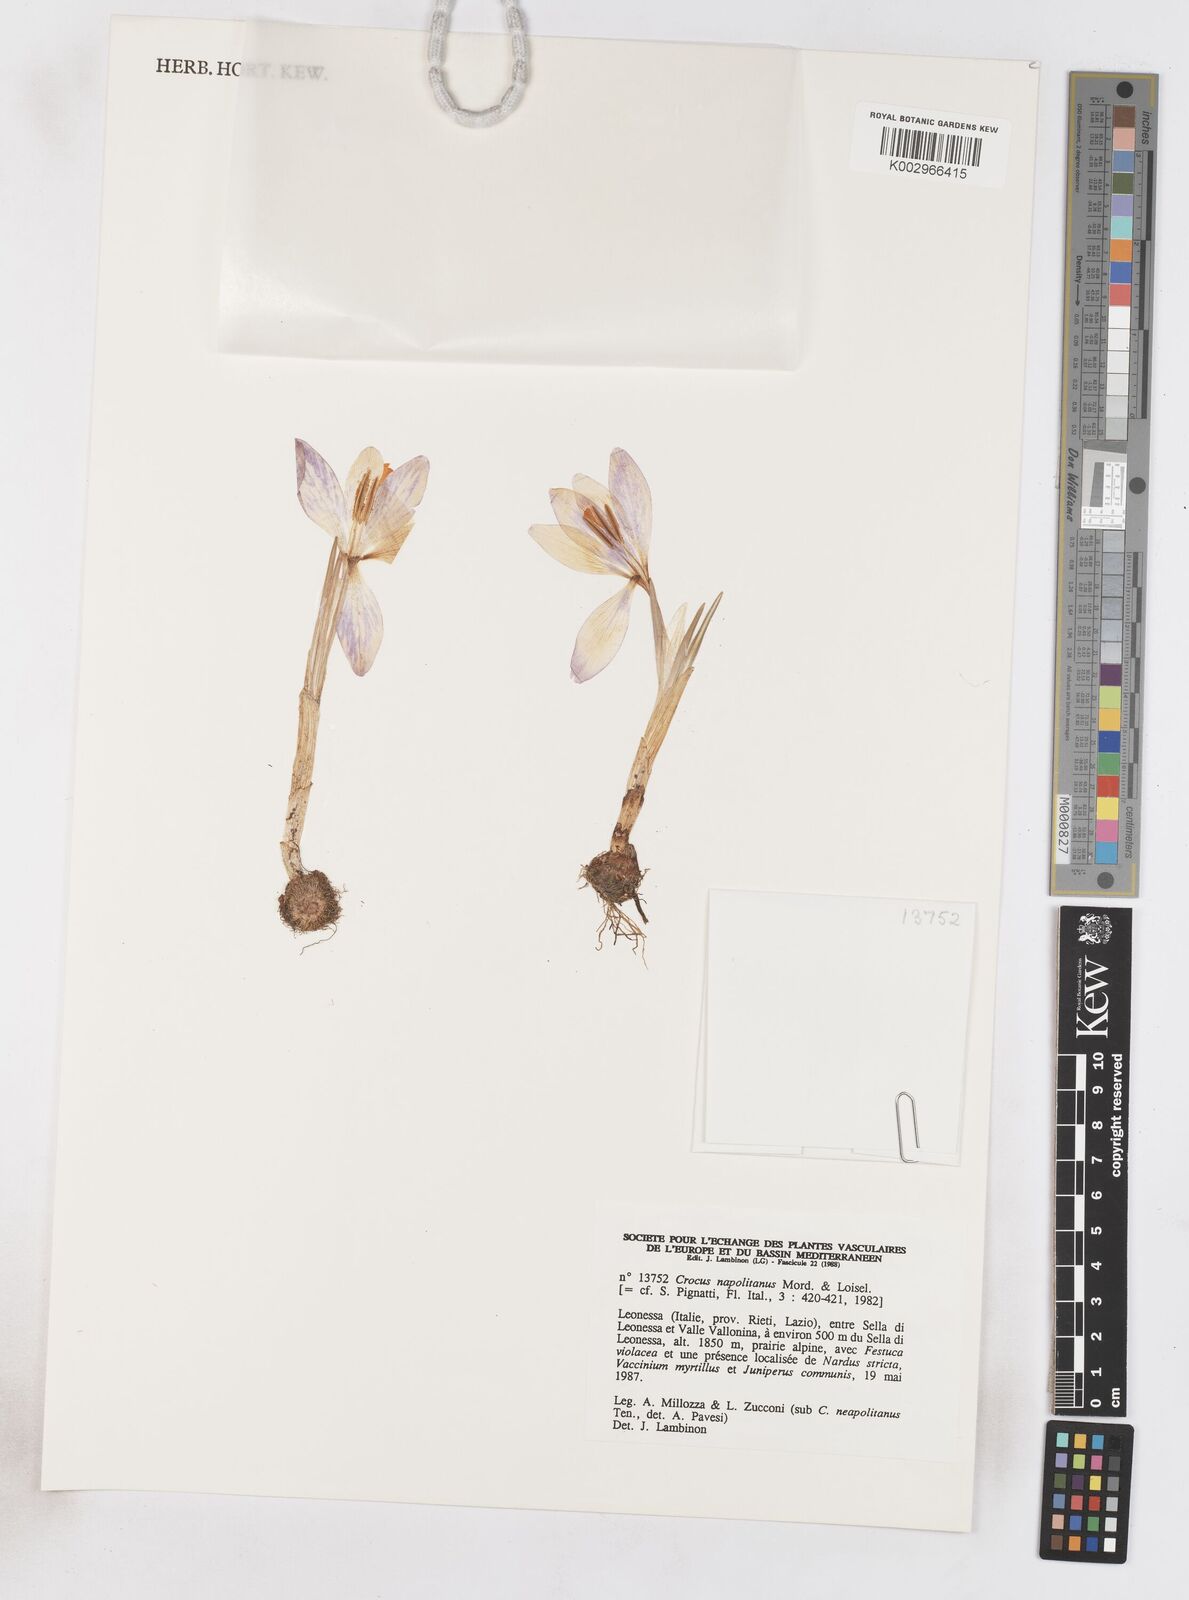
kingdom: Plantae
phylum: Tracheophyta
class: Liliopsida
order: Asparagales
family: Iridaceae
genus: Crocus
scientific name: Crocus vernus
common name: Spring crocus
